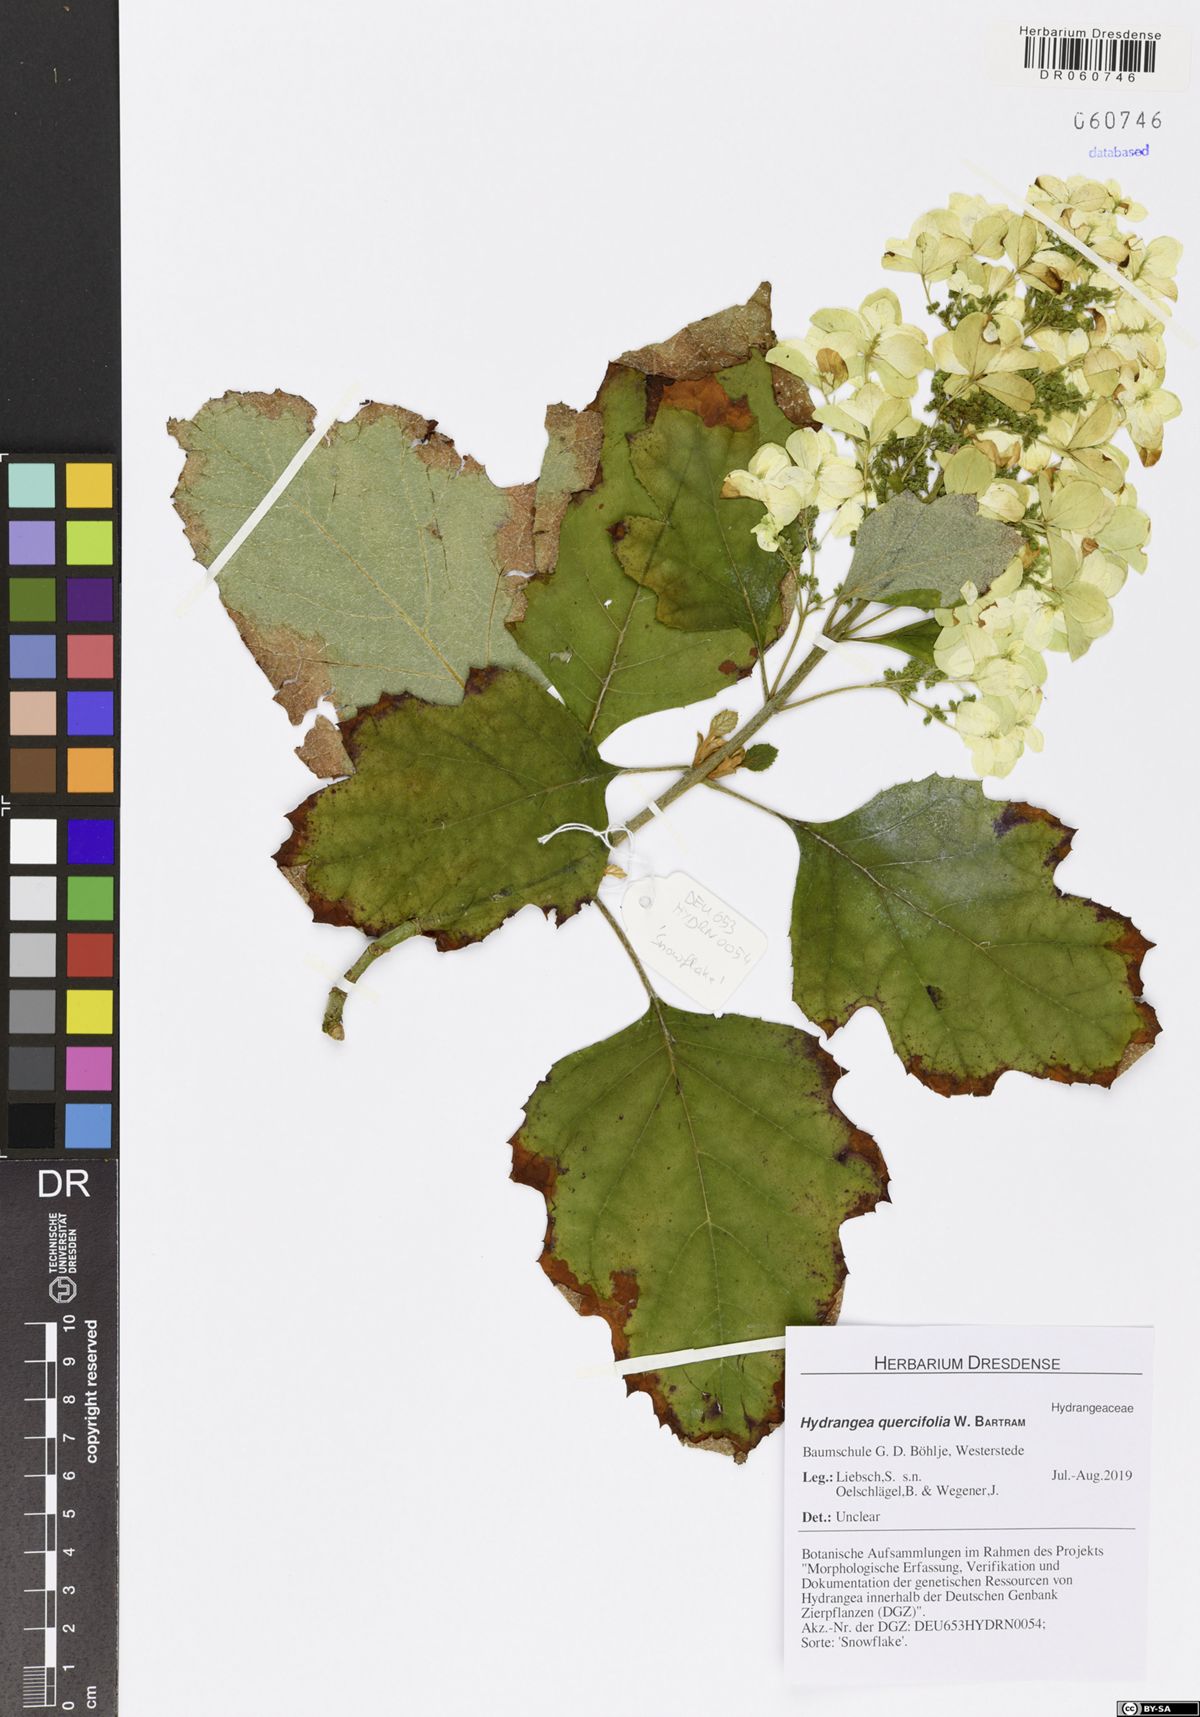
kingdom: Plantae
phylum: Tracheophyta
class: Magnoliopsida
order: Cornales
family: Hydrangeaceae
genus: Hydrangea
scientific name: Hydrangea quercifolia
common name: Oak-leaf hydrangea
